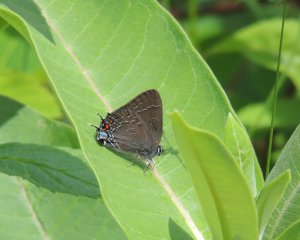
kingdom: Animalia
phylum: Arthropoda
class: Insecta
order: Lepidoptera
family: Lycaenidae
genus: Satyrium
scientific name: Satyrium calanus
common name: Banded Hairstreak
